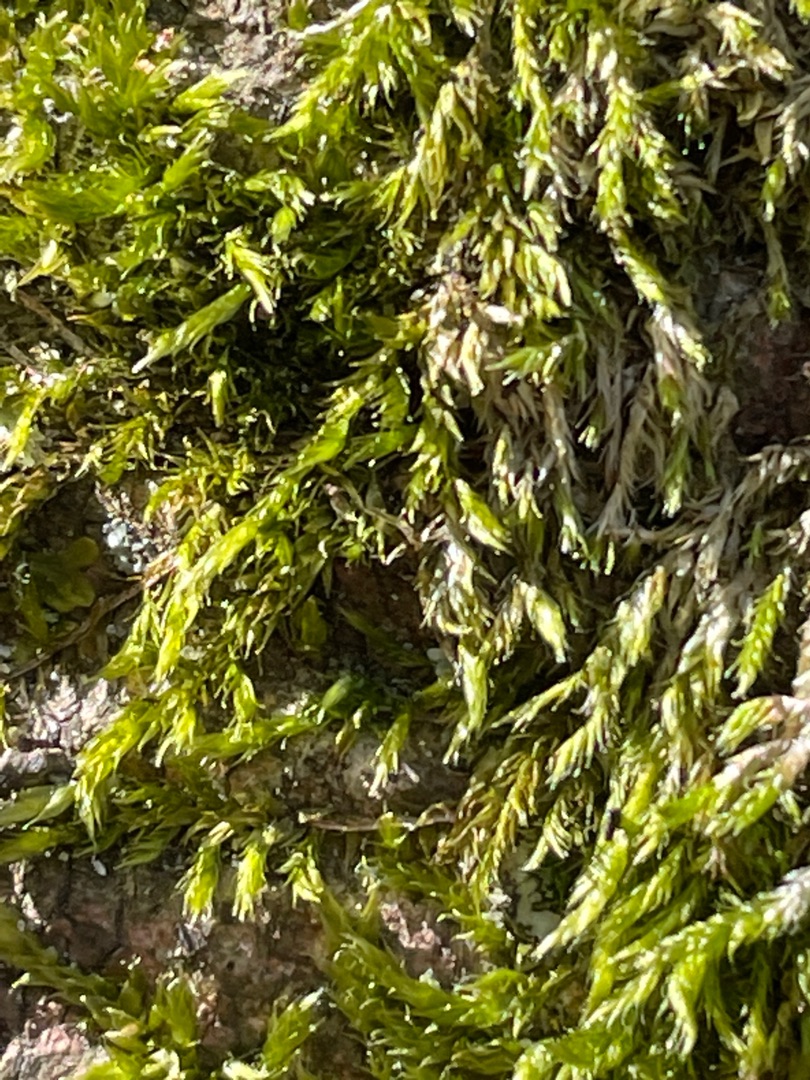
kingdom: Plantae
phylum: Bryophyta
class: Bryopsida
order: Hypnales
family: Hypnaceae
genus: Hypnum
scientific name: Hypnum
